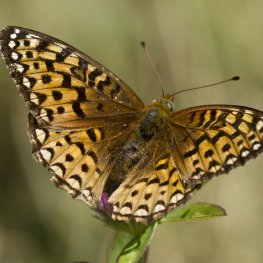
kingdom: Animalia
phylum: Arthropoda
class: Insecta
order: Lepidoptera
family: Nymphalidae
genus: Speyeria
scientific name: Speyeria atlantis
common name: Atlantis Fritillary
